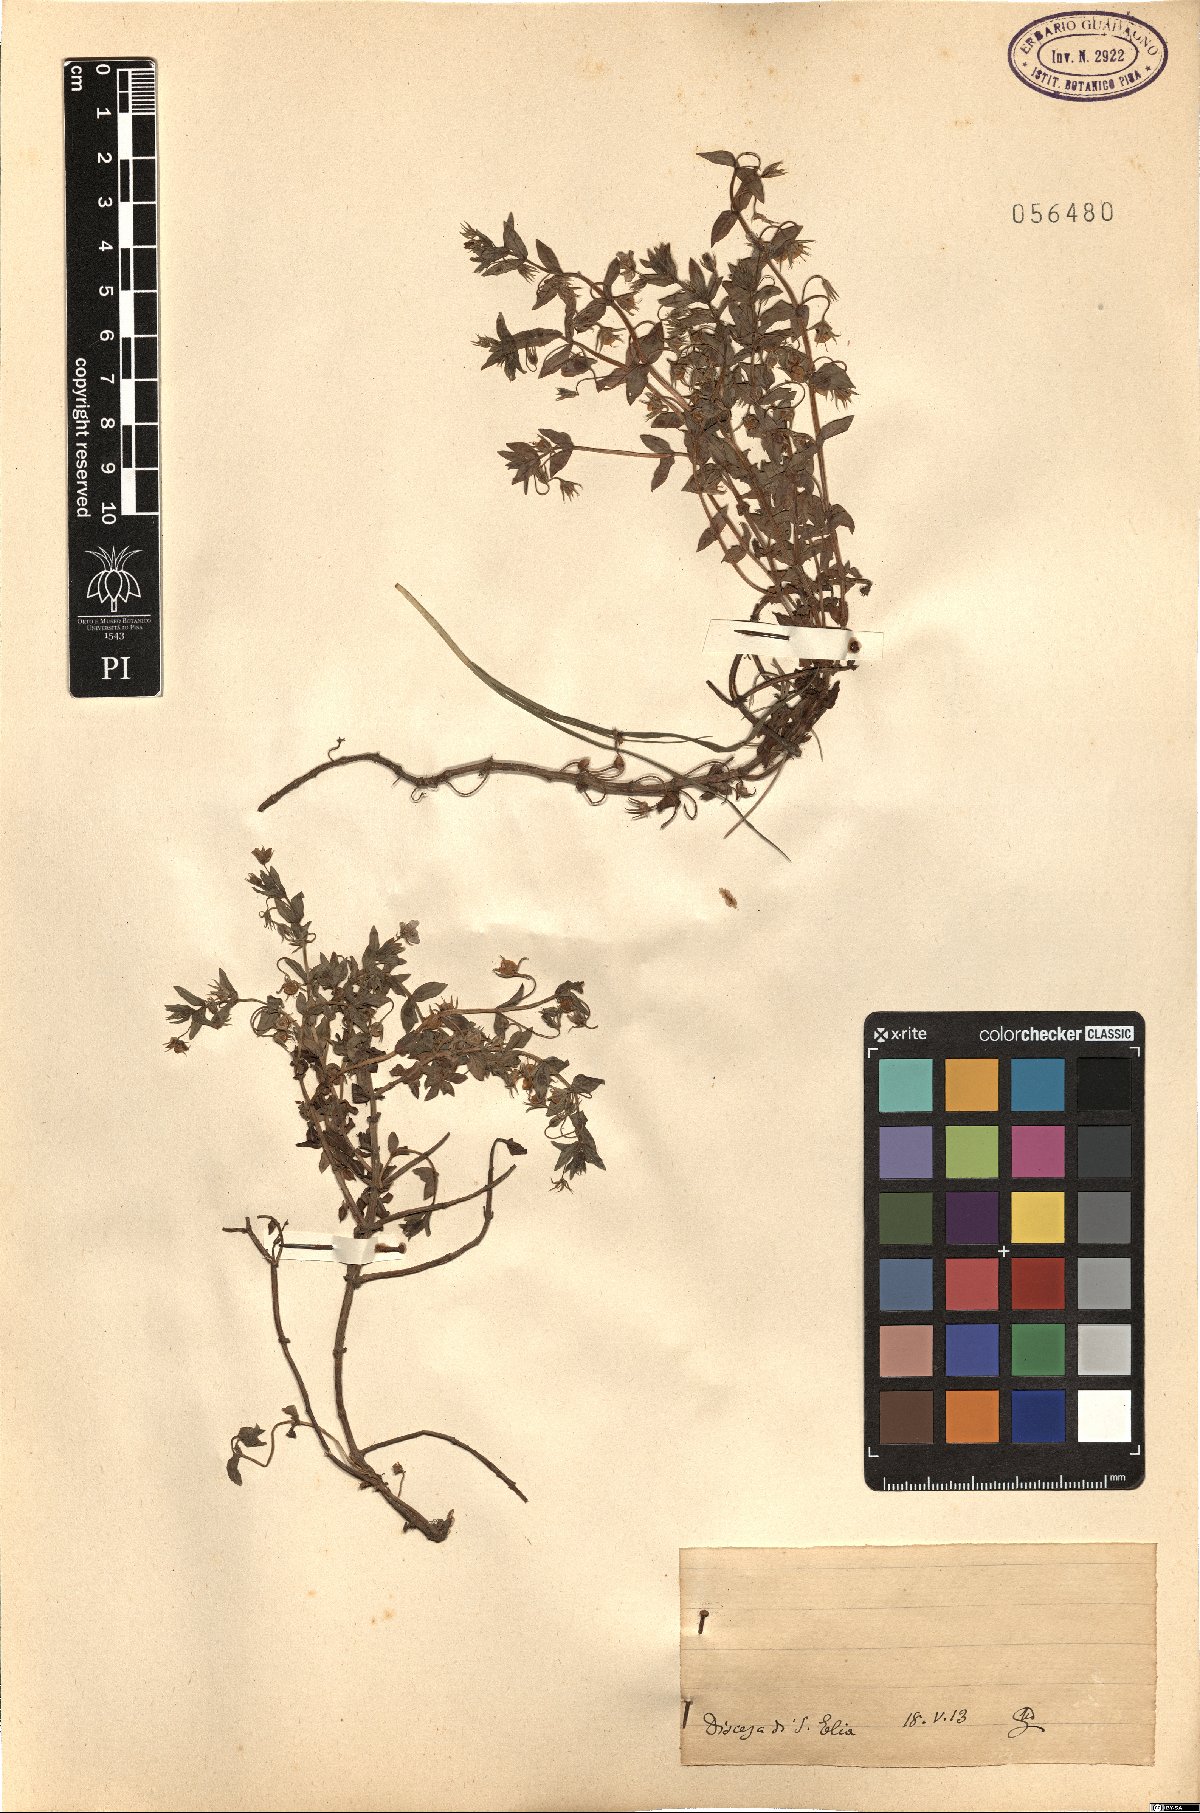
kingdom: Plantae
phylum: Tracheophyta
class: Magnoliopsida
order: Ericales
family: Primulaceae
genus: Lysimachia
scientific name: Lysimachia Anagallis spec
